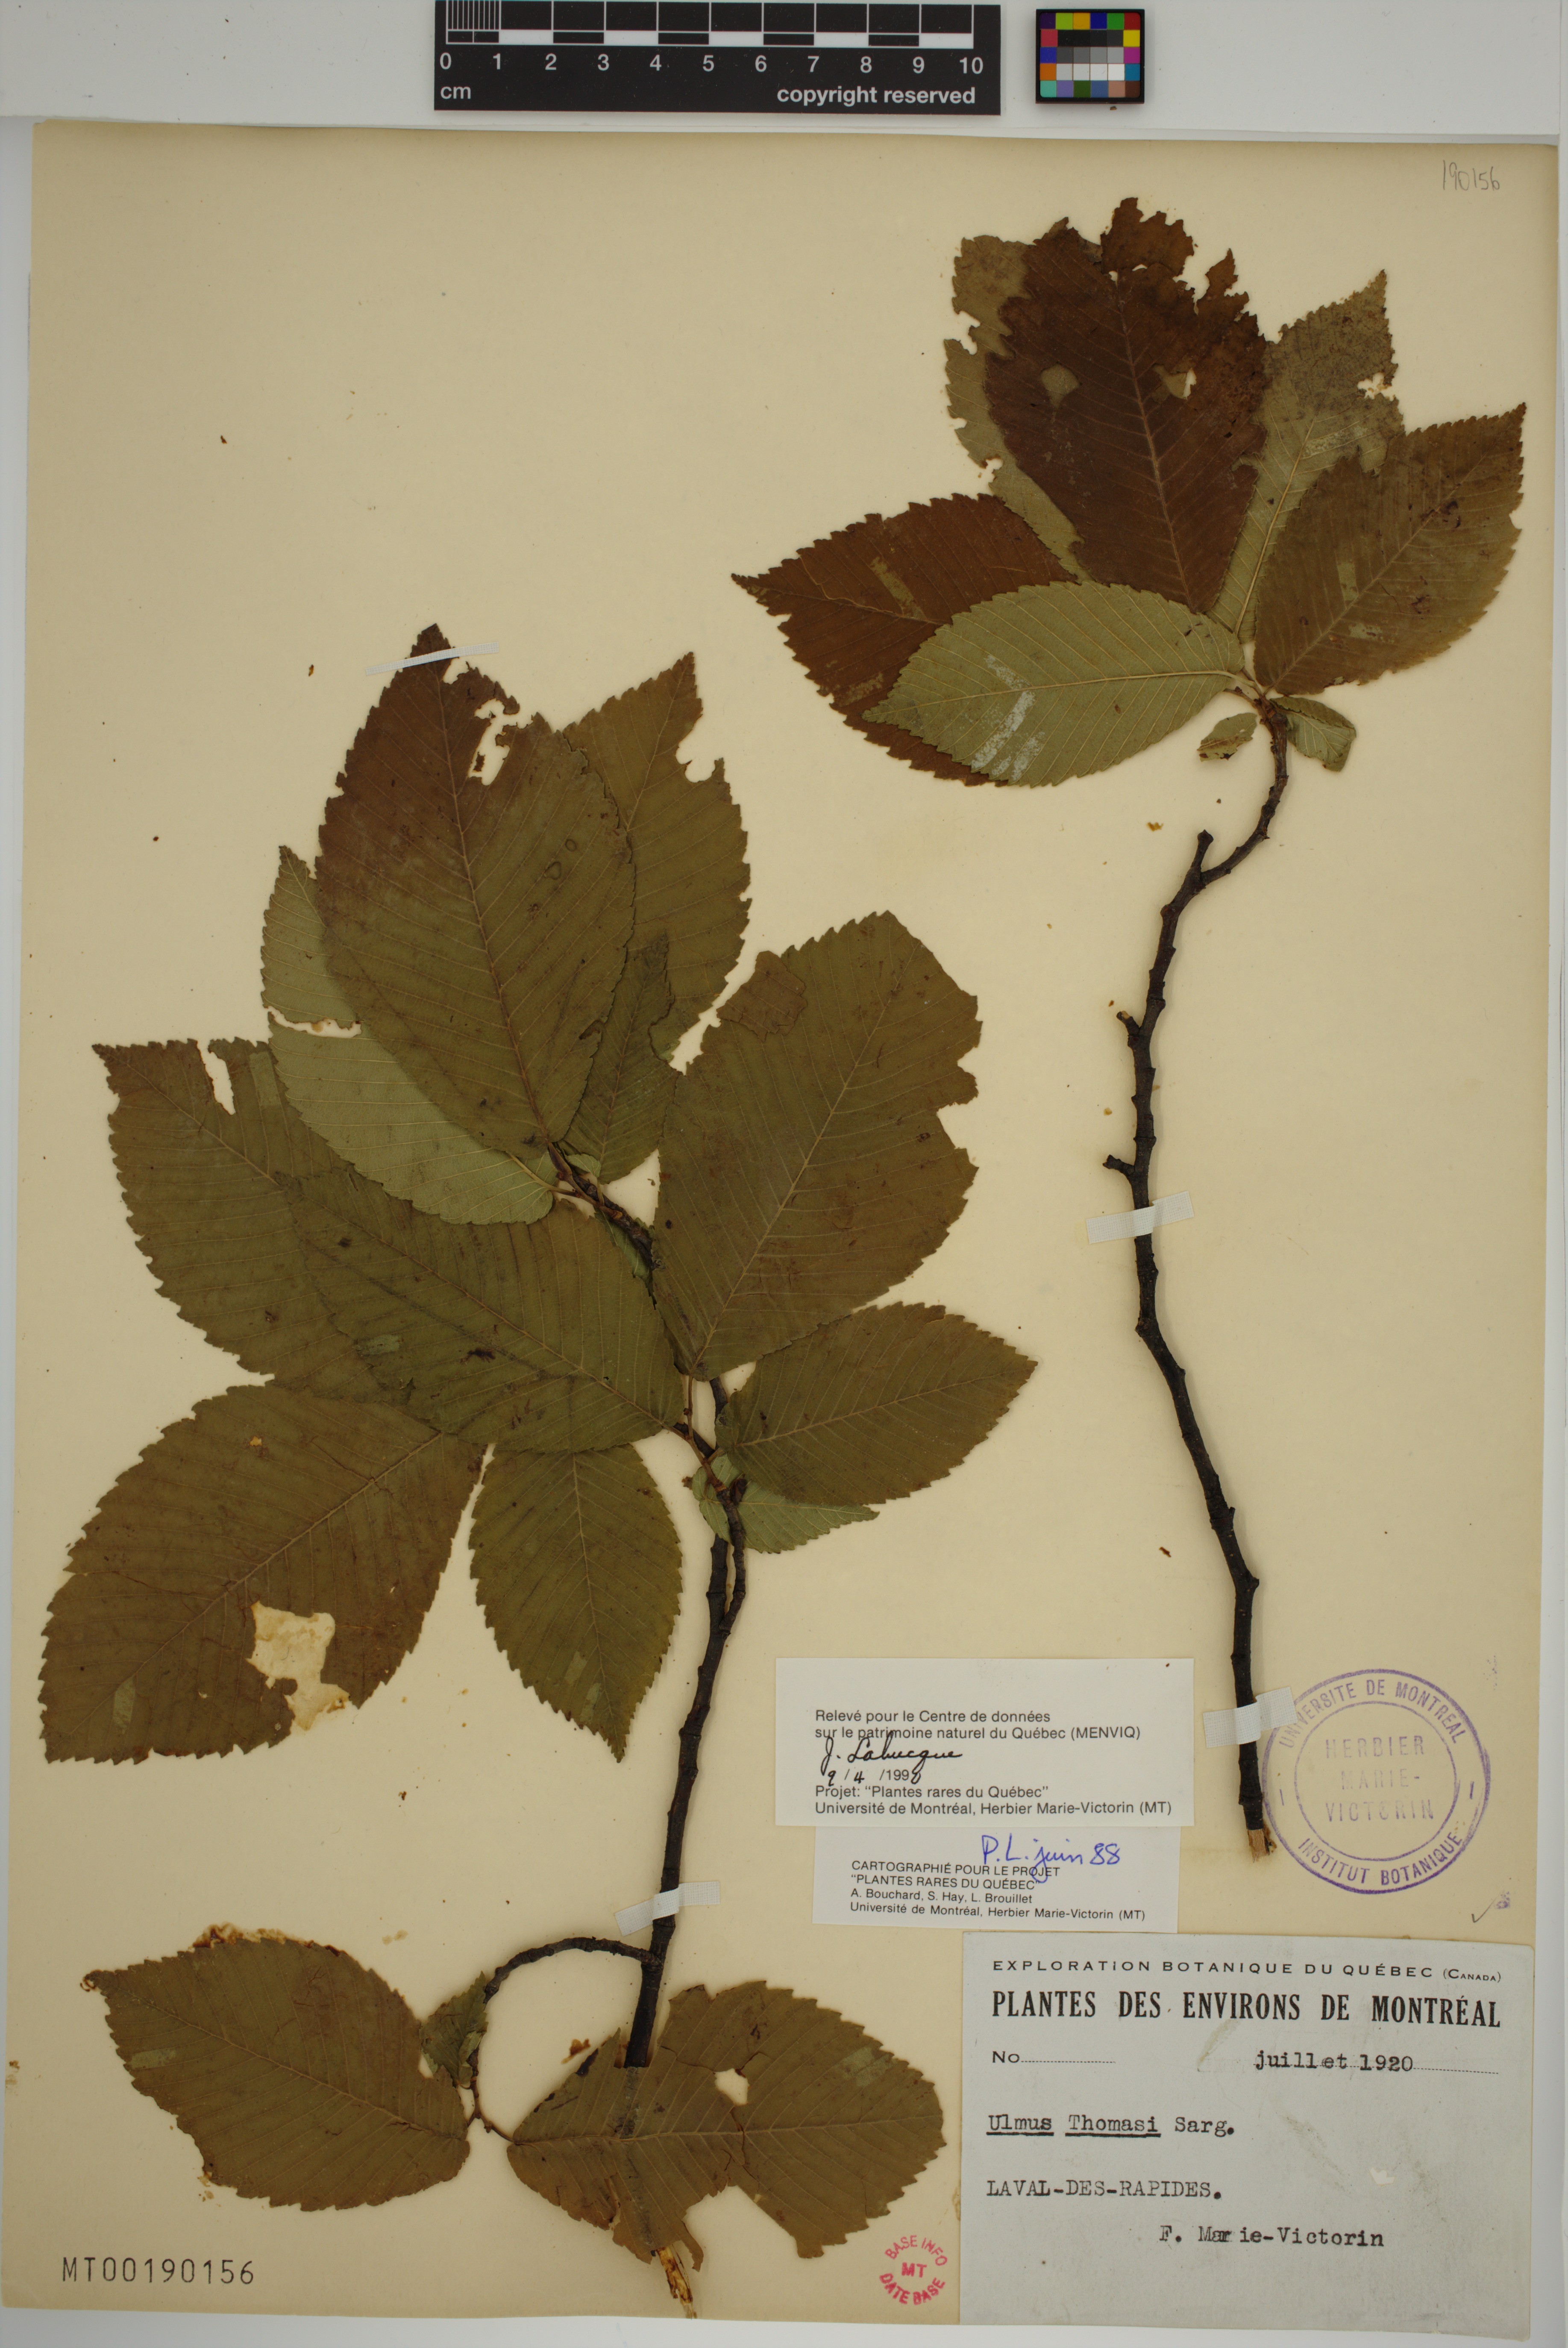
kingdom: Plantae
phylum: Tracheophyta
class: Magnoliopsida
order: Rosales
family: Ulmaceae
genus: Ulmus
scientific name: Ulmus thomasii
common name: Rock elm
